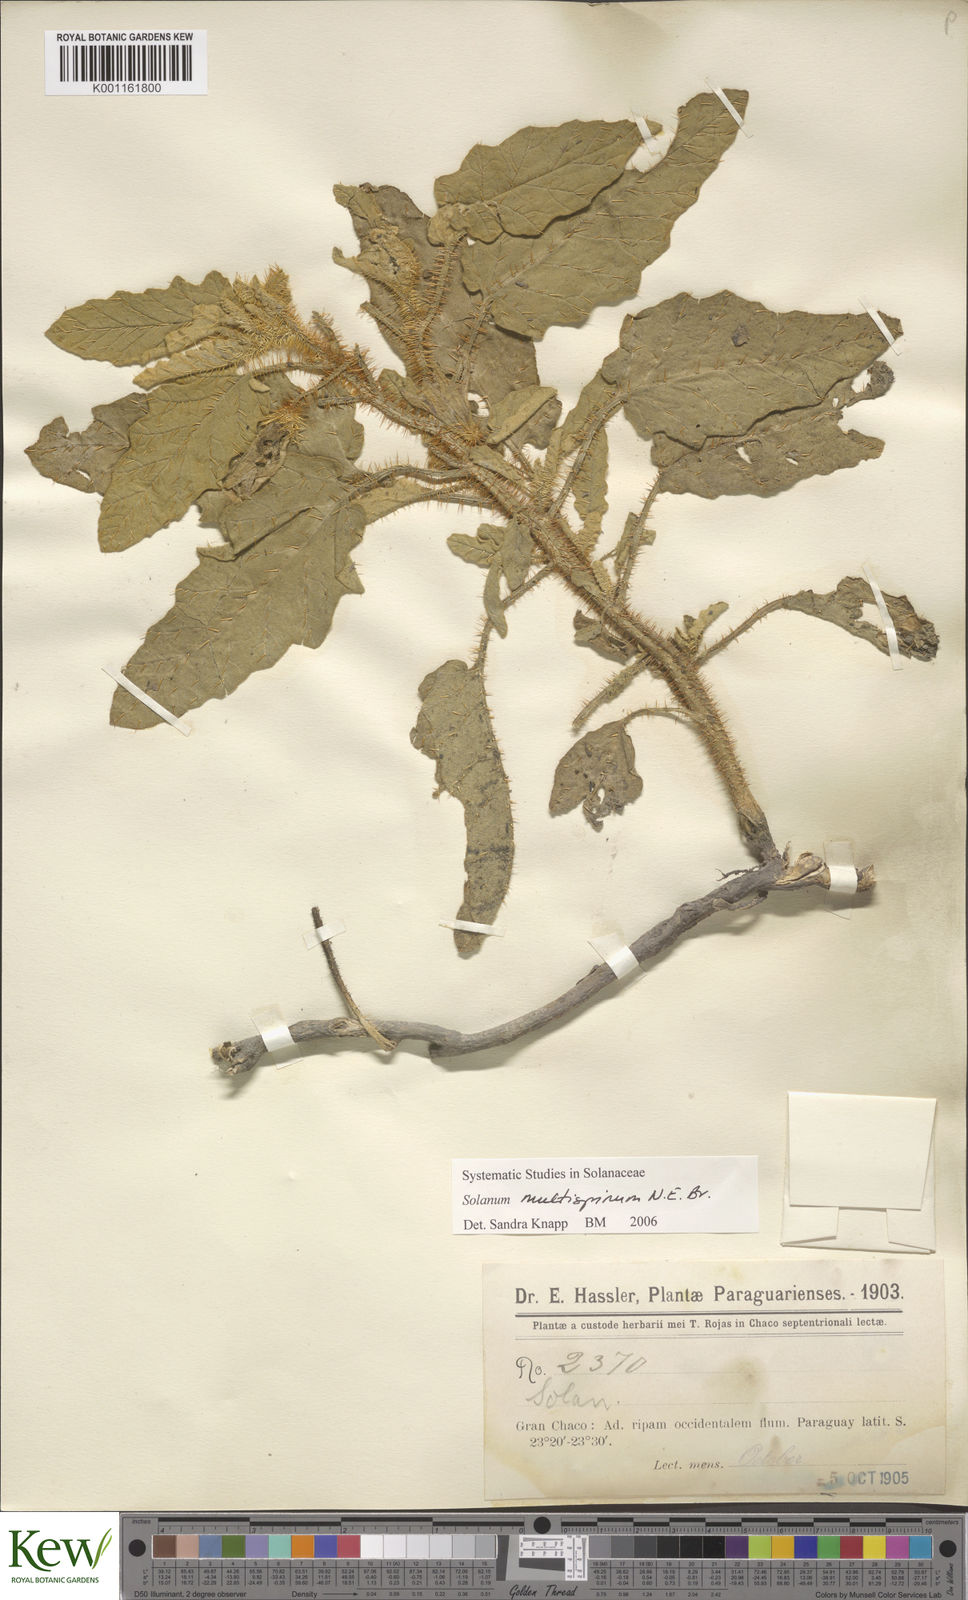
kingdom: Plantae
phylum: Tracheophyta
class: Magnoliopsida
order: Solanales
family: Solanaceae
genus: Solanum
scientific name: Solanum multispinum
